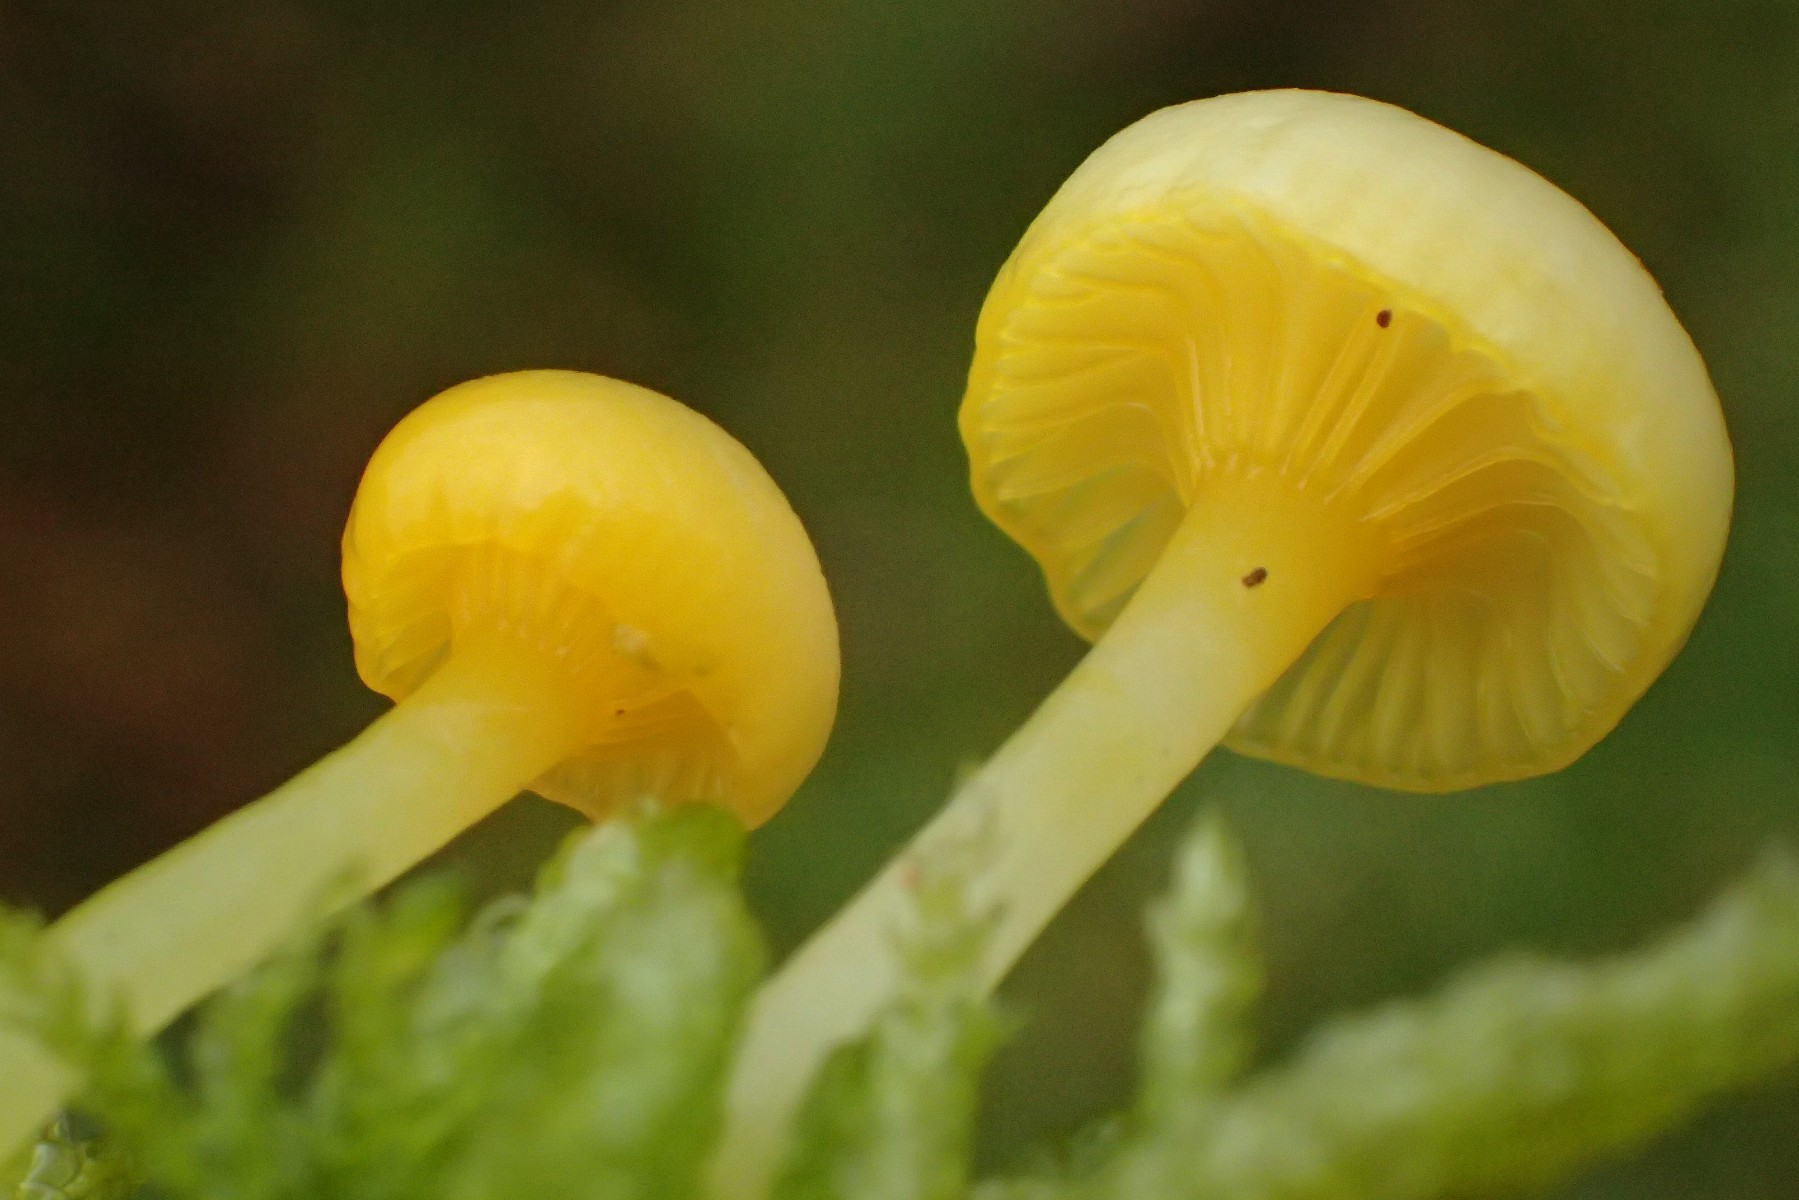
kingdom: Fungi
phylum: Basidiomycota
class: Agaricomycetes
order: Agaricales
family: Hygrophoraceae
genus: Gloioxanthomyces
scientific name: Gloioxanthomyces vitellinus
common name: kromgul vokshat
